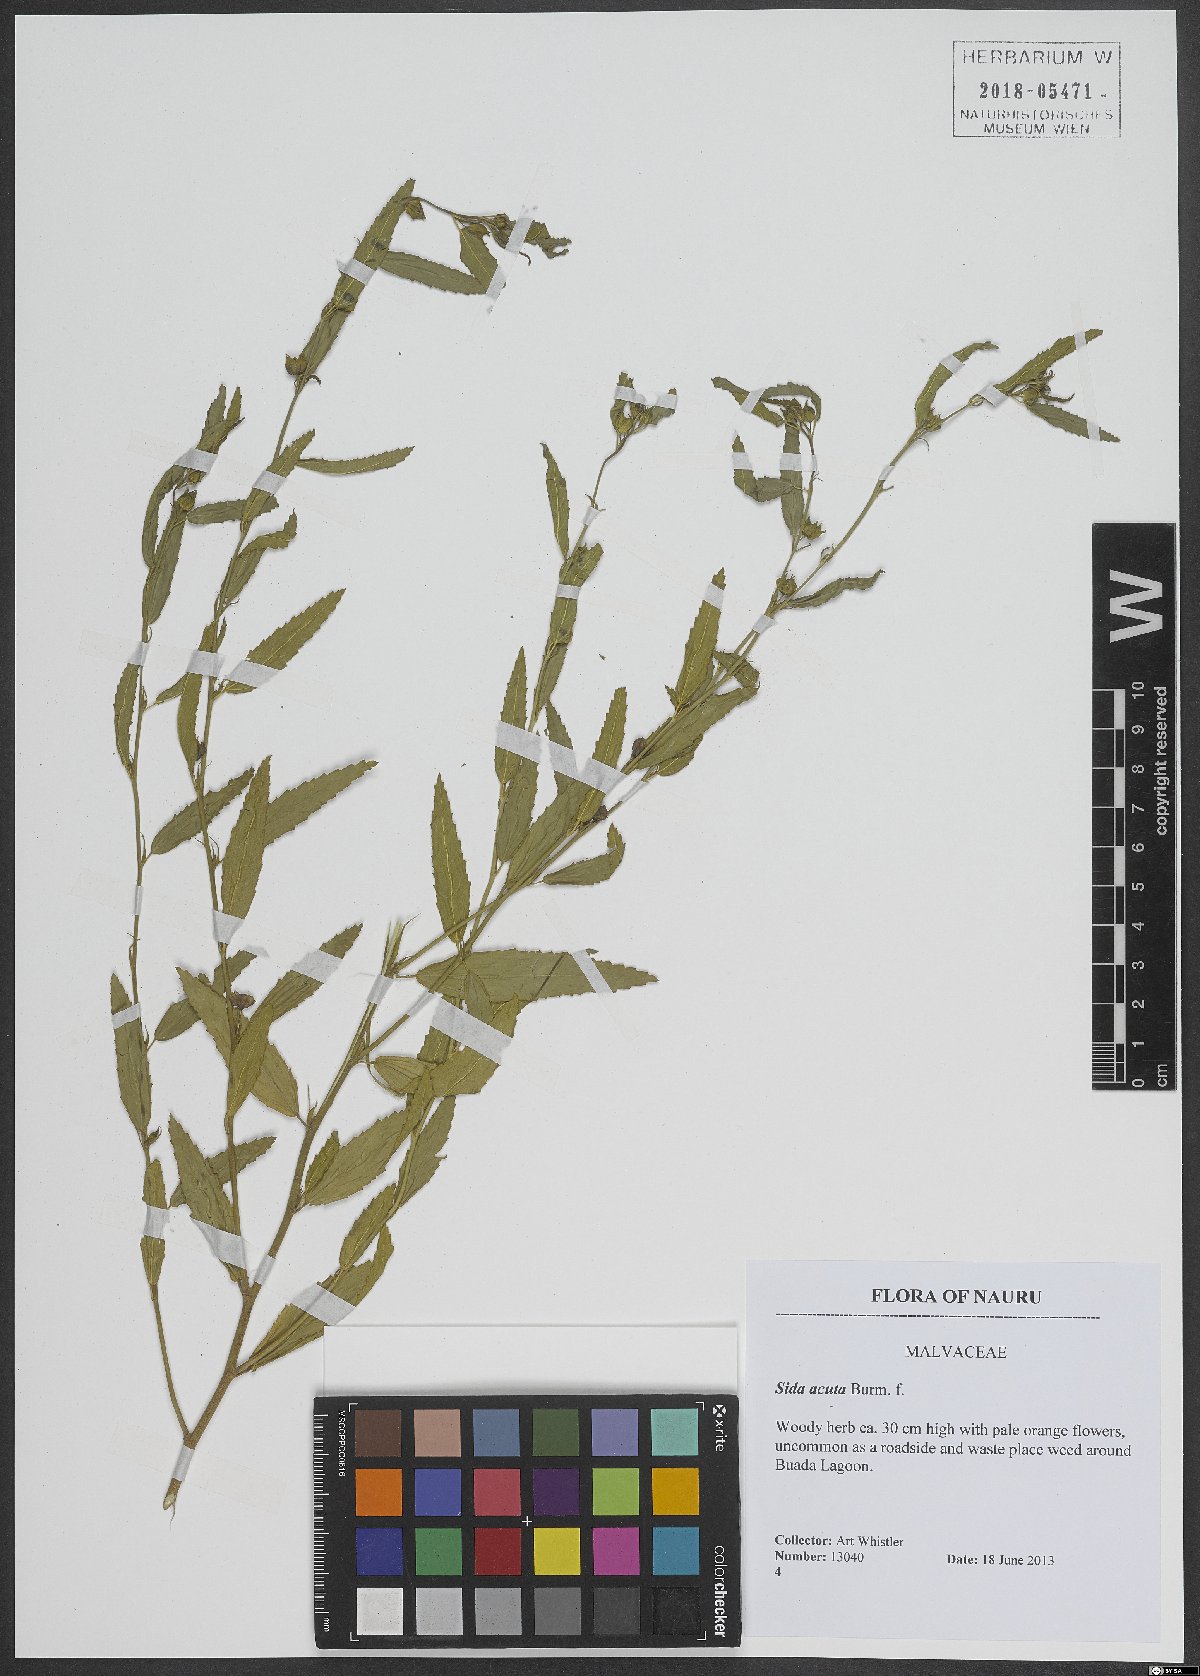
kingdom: Plantae
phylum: Tracheophyta
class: Magnoliopsida
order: Malvales
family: Malvaceae
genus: Sida
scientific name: Sida acuta
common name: Common wireweed
